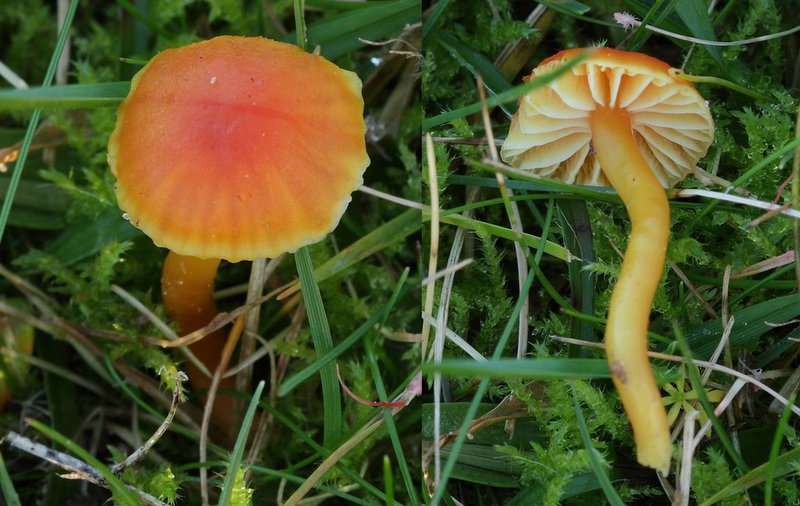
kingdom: Fungi
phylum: Basidiomycota
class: Agaricomycetes
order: Agaricales
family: Hygrophoraceae
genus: Hygrocybe
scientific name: Hygrocybe mucronella
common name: bitter vokshat
